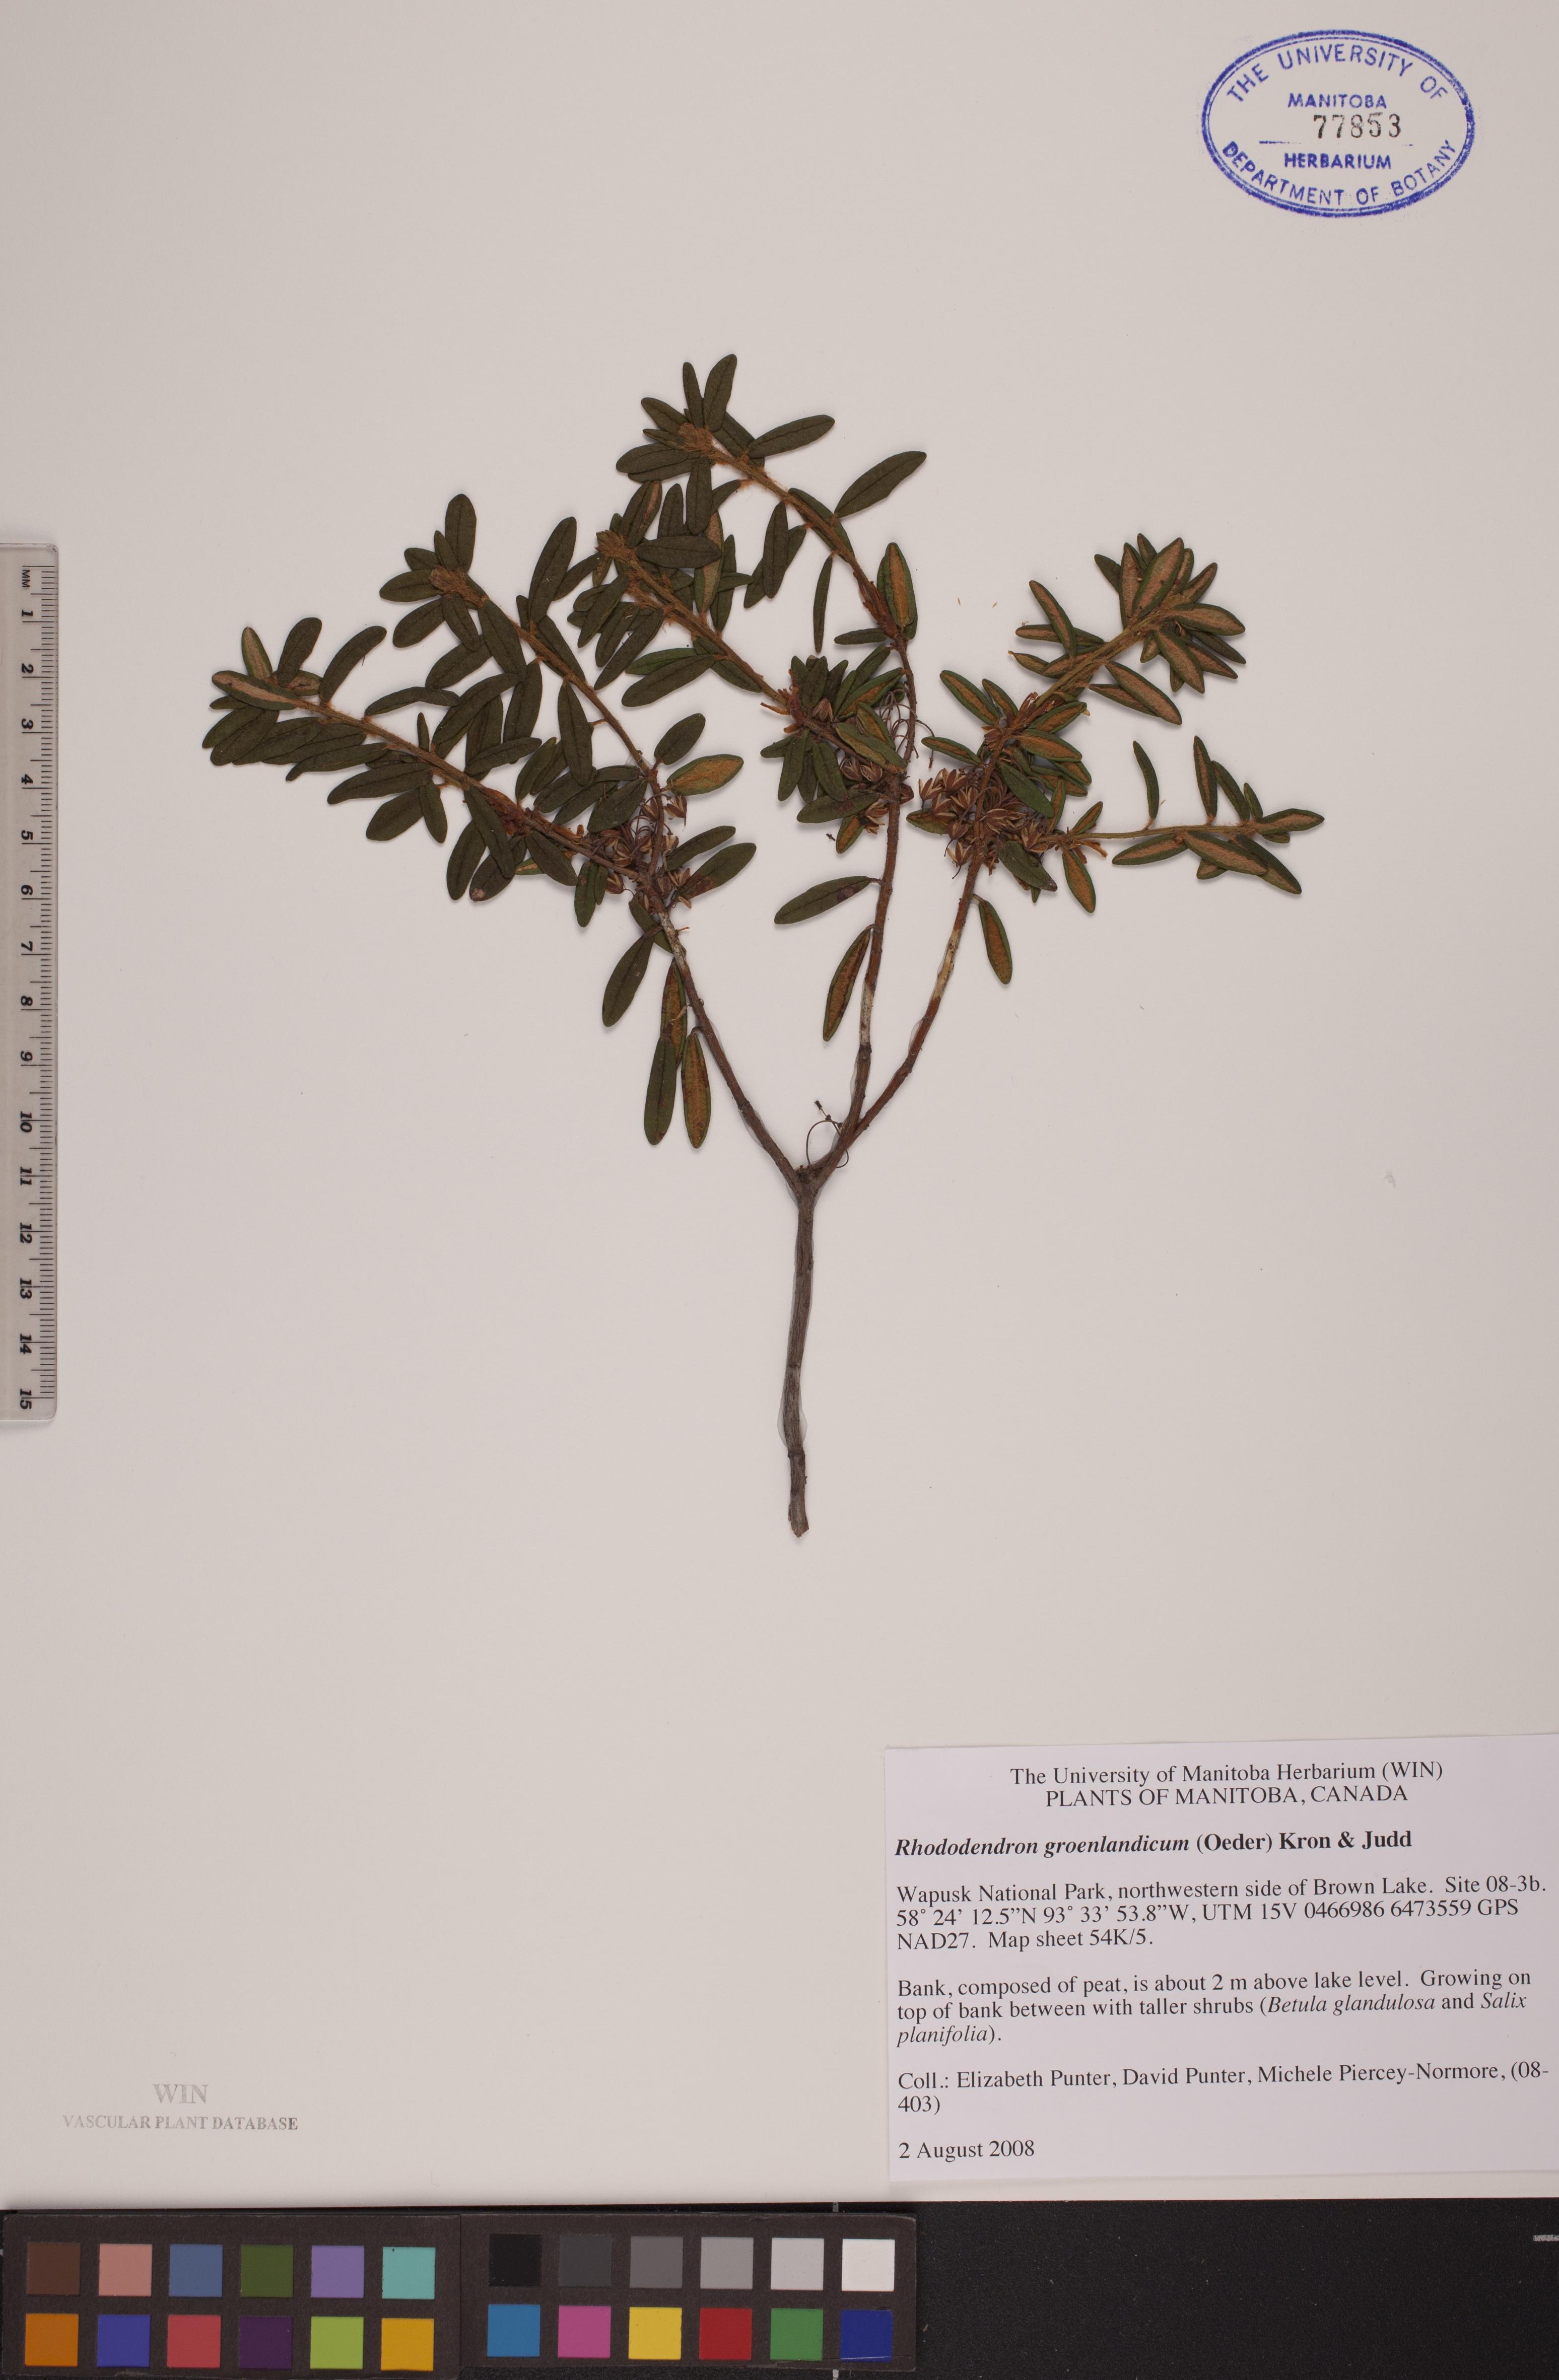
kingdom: Plantae
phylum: Tracheophyta
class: Magnoliopsida
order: Ericales
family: Ericaceae
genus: Rhododendron
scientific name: Rhododendron groenlandicum
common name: Bog labrador tea
